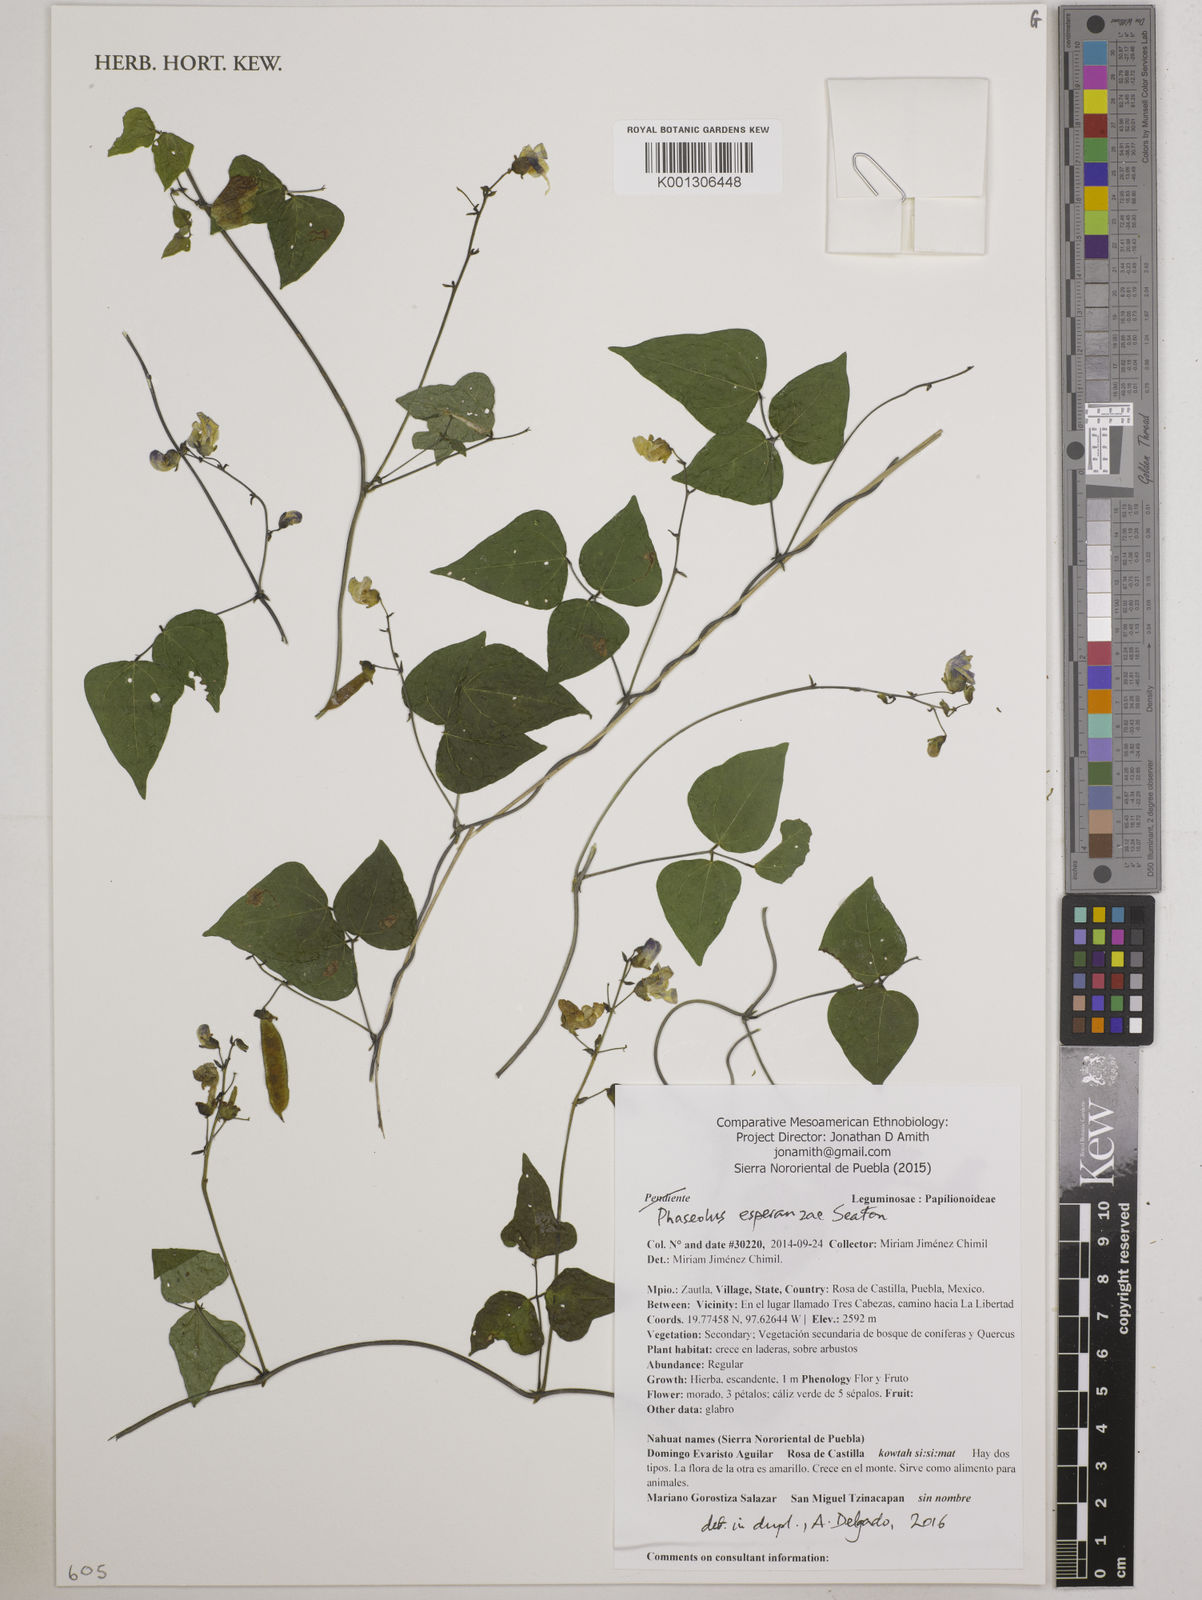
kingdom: Plantae
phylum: Tracheophyta
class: Magnoliopsida
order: Fabales
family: Fabaceae
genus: Phaseolus
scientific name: Phaseolus esperanzae
